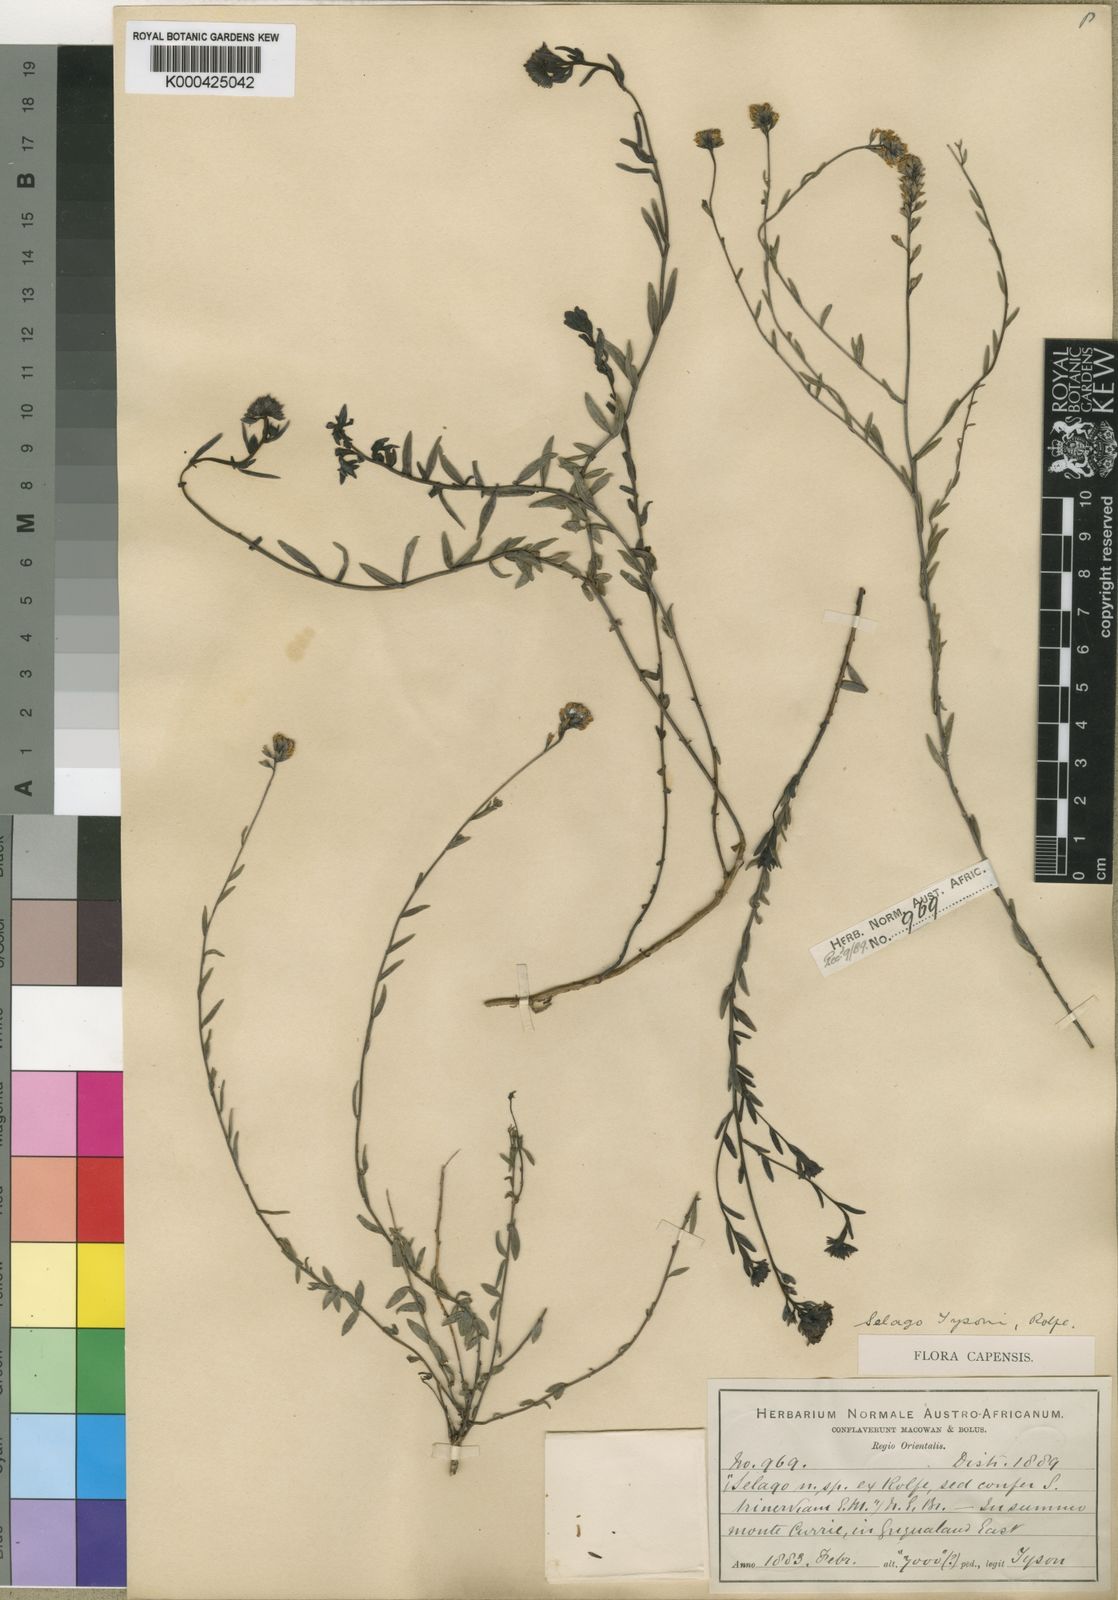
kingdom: Plantae
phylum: Tracheophyta
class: Magnoliopsida
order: Lamiales
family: Scrophulariaceae
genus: Selago
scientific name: Selago trinervia
